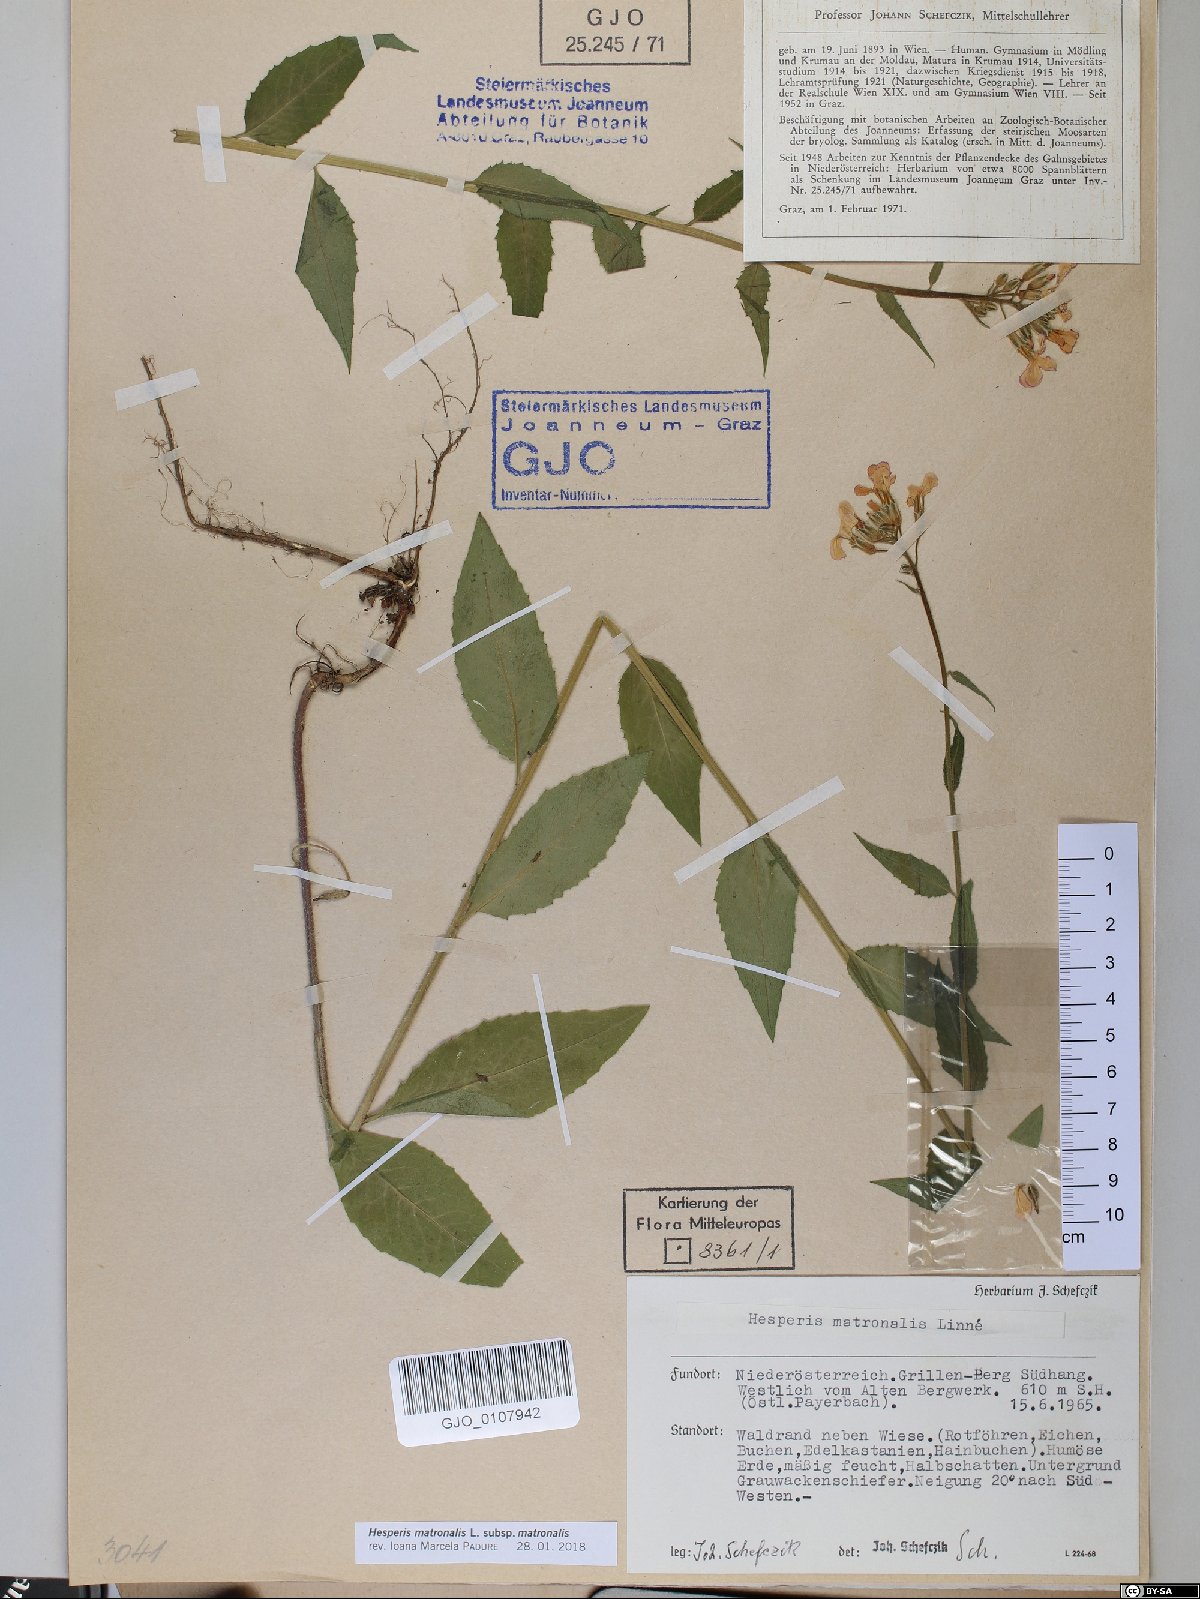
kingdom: Plantae
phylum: Tracheophyta
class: Magnoliopsida
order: Brassicales
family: Brassicaceae
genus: Hesperis
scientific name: Hesperis matronalis
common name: Dame's-violet
